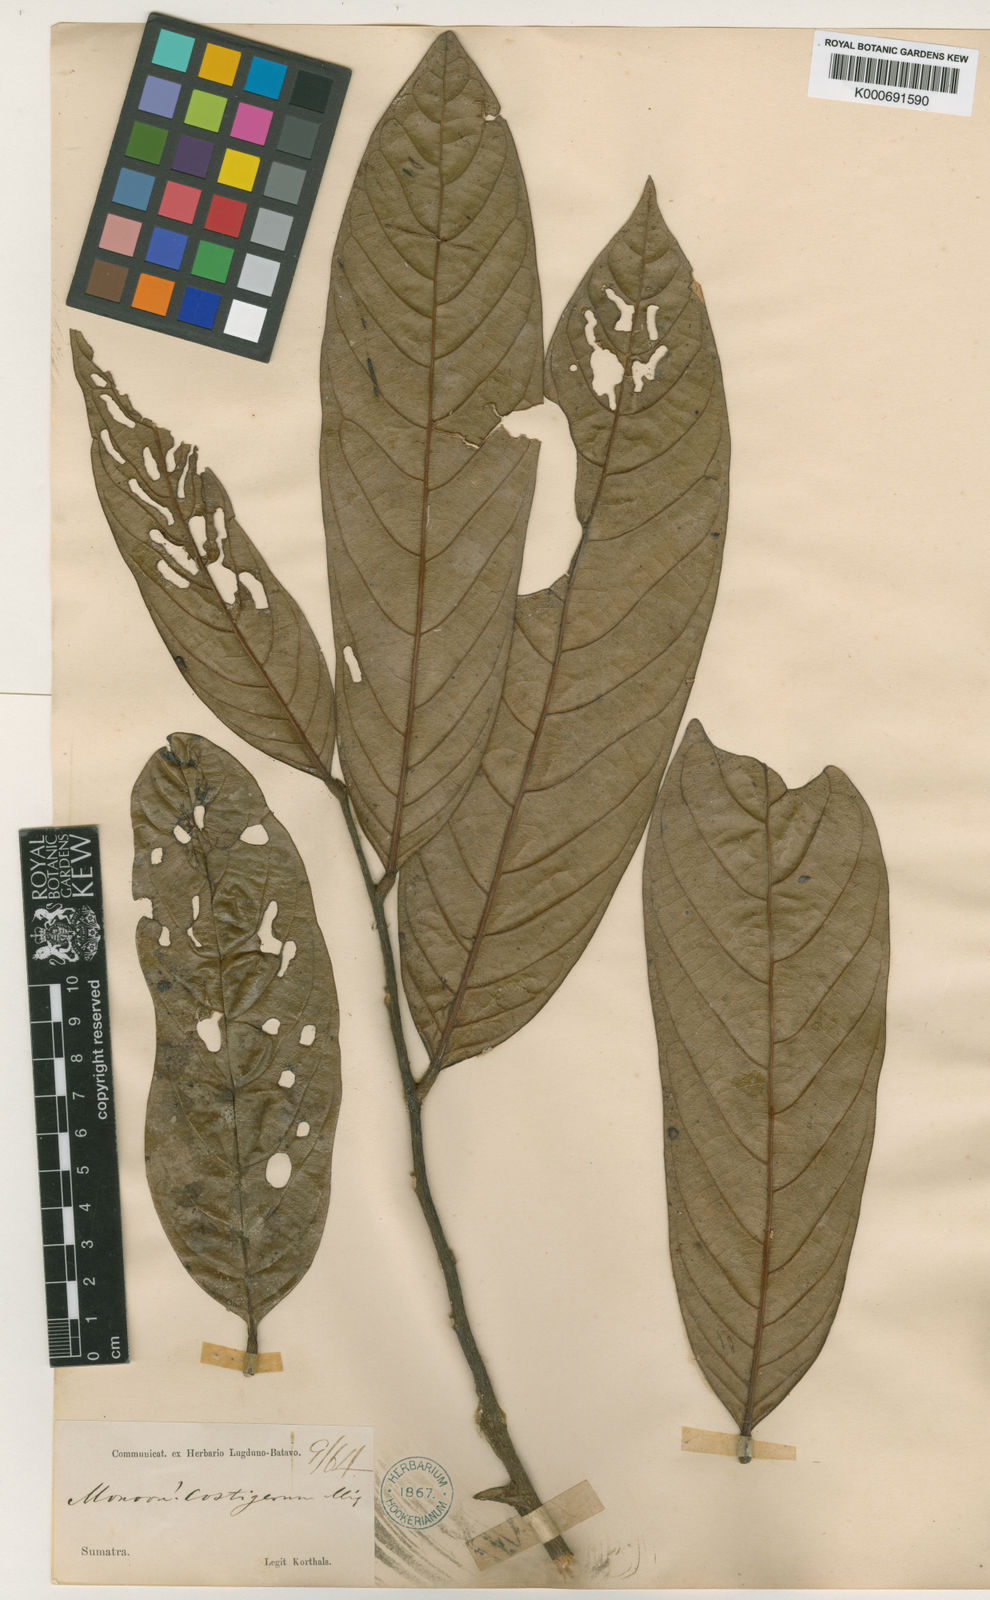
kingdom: Plantae
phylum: Tracheophyta
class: Magnoliopsida
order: Magnoliales
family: Annonaceae
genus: Polyalthia
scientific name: Polyalthia
